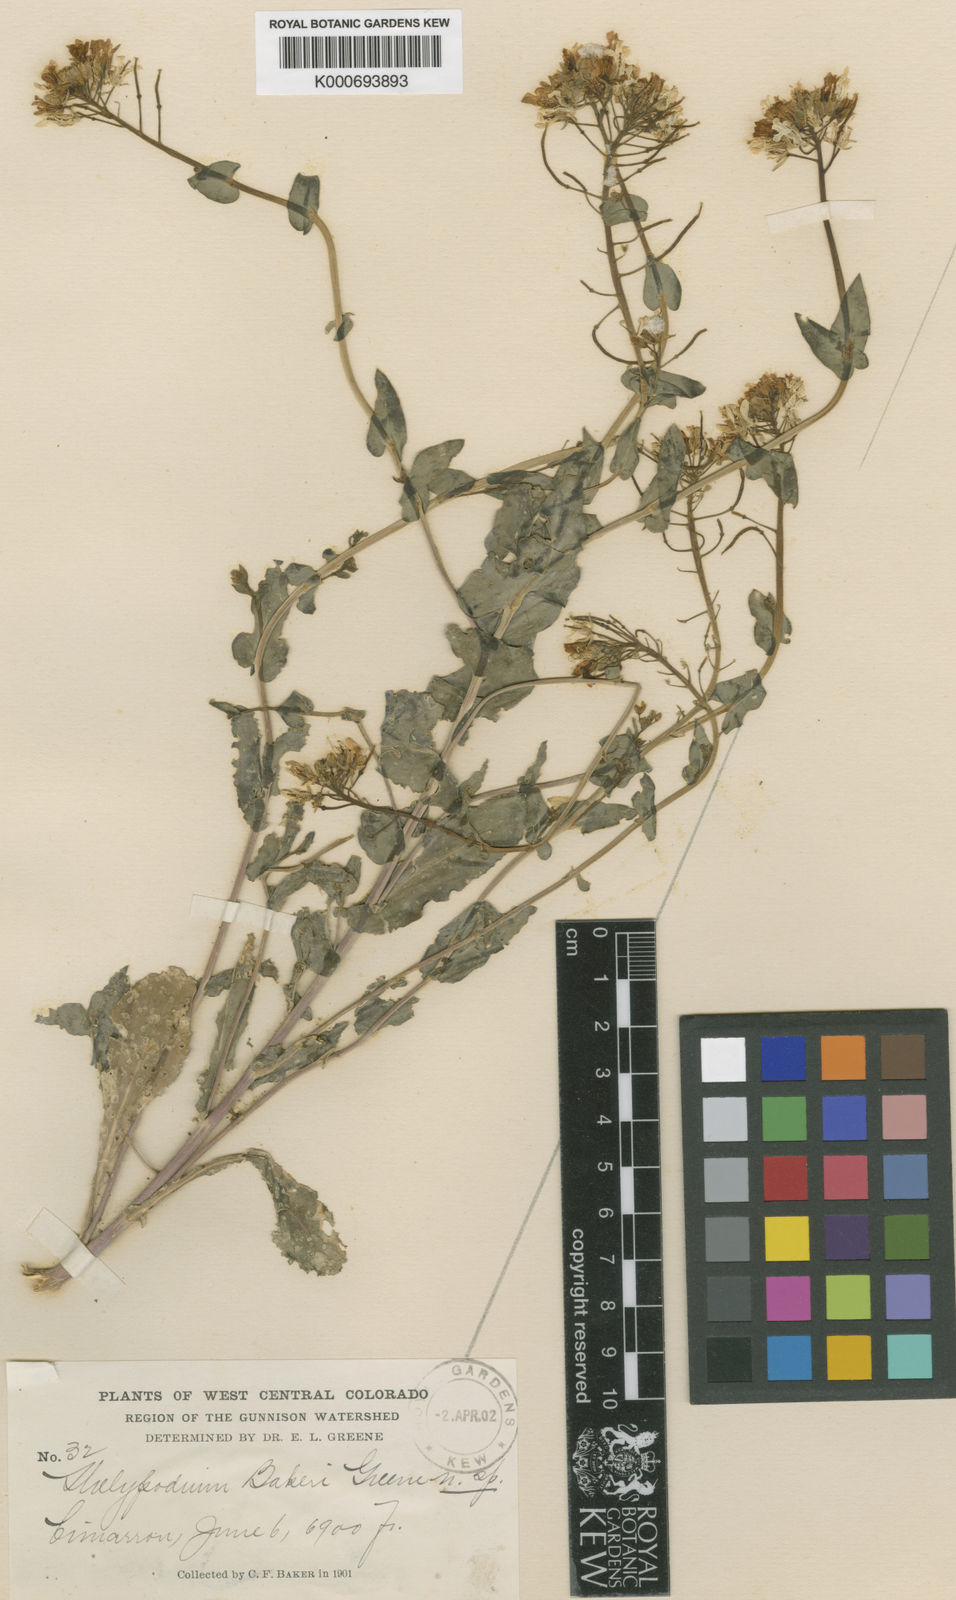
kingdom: Plantae
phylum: Tracheophyta
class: Magnoliopsida
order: Brassicales
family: Brassicaceae
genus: Thelypodiopsis
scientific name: Thelypodiopsis elegans
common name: Elegant thelypody
